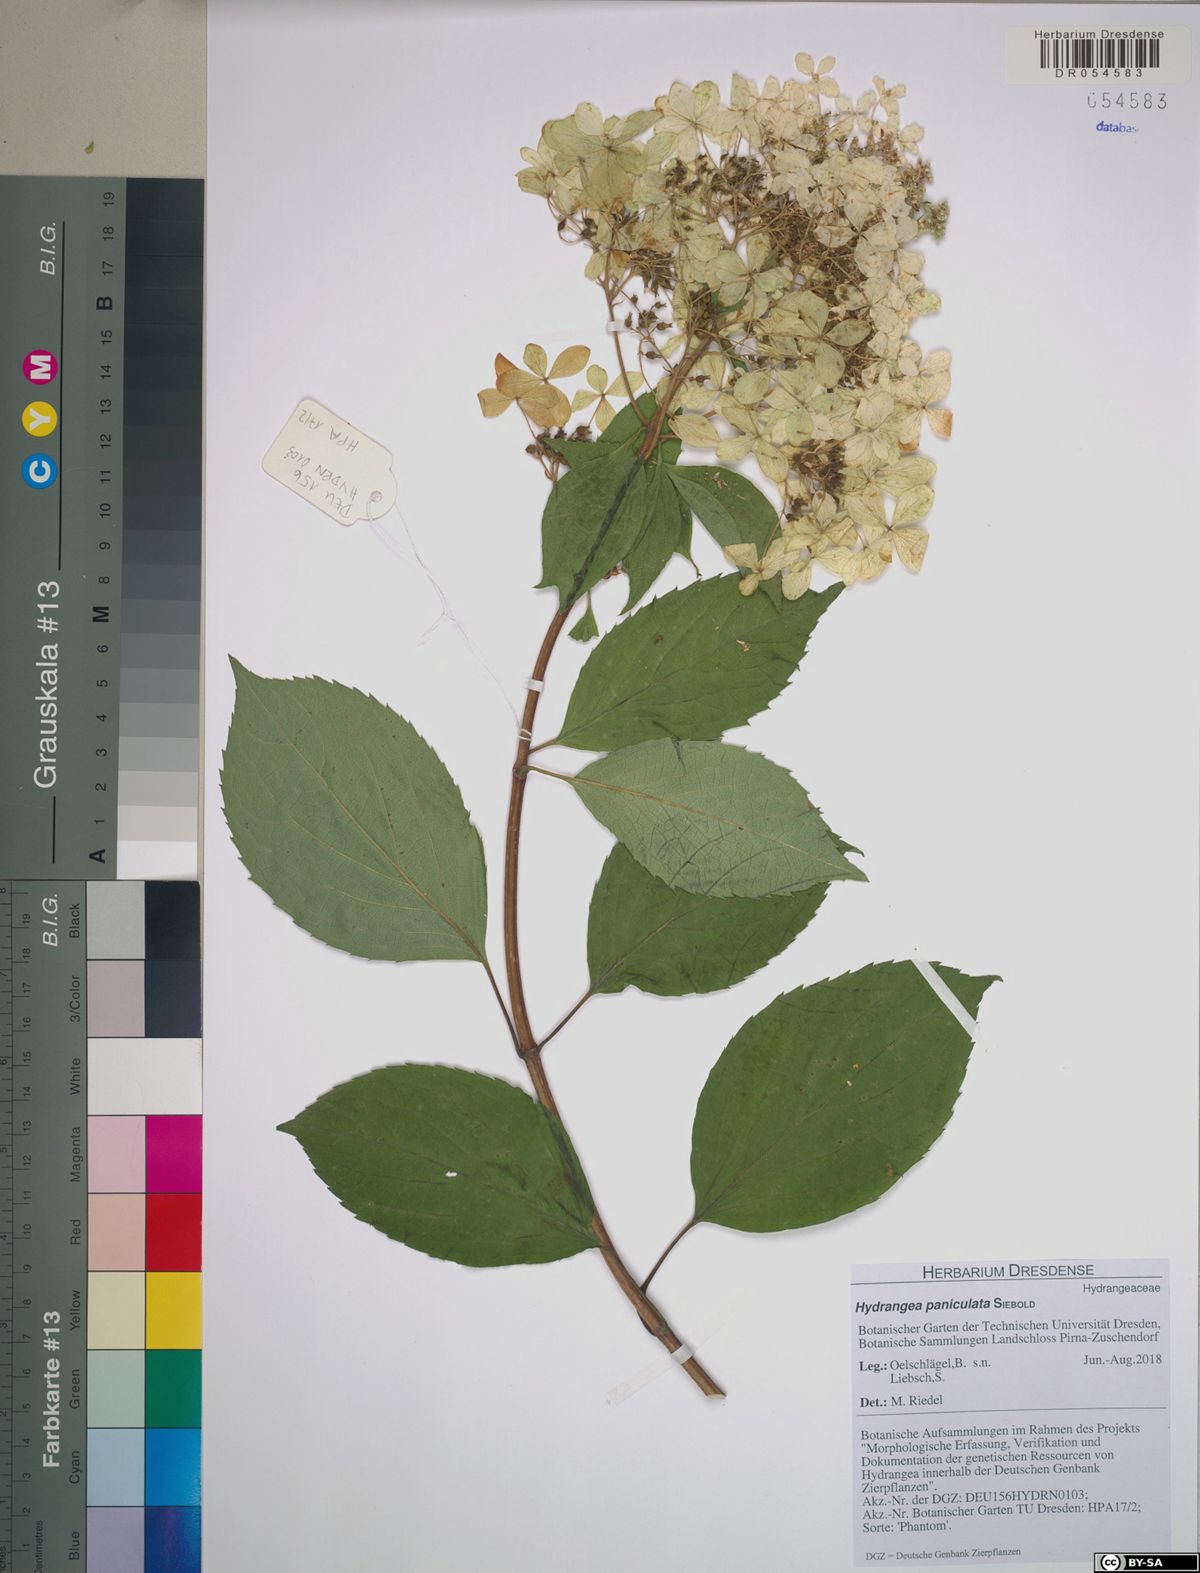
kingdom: Plantae
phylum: Tracheophyta
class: Magnoliopsida
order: Cornales
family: Hydrangeaceae
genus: Hydrangea
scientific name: Hydrangea paniculata
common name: Panicled hydrangea
